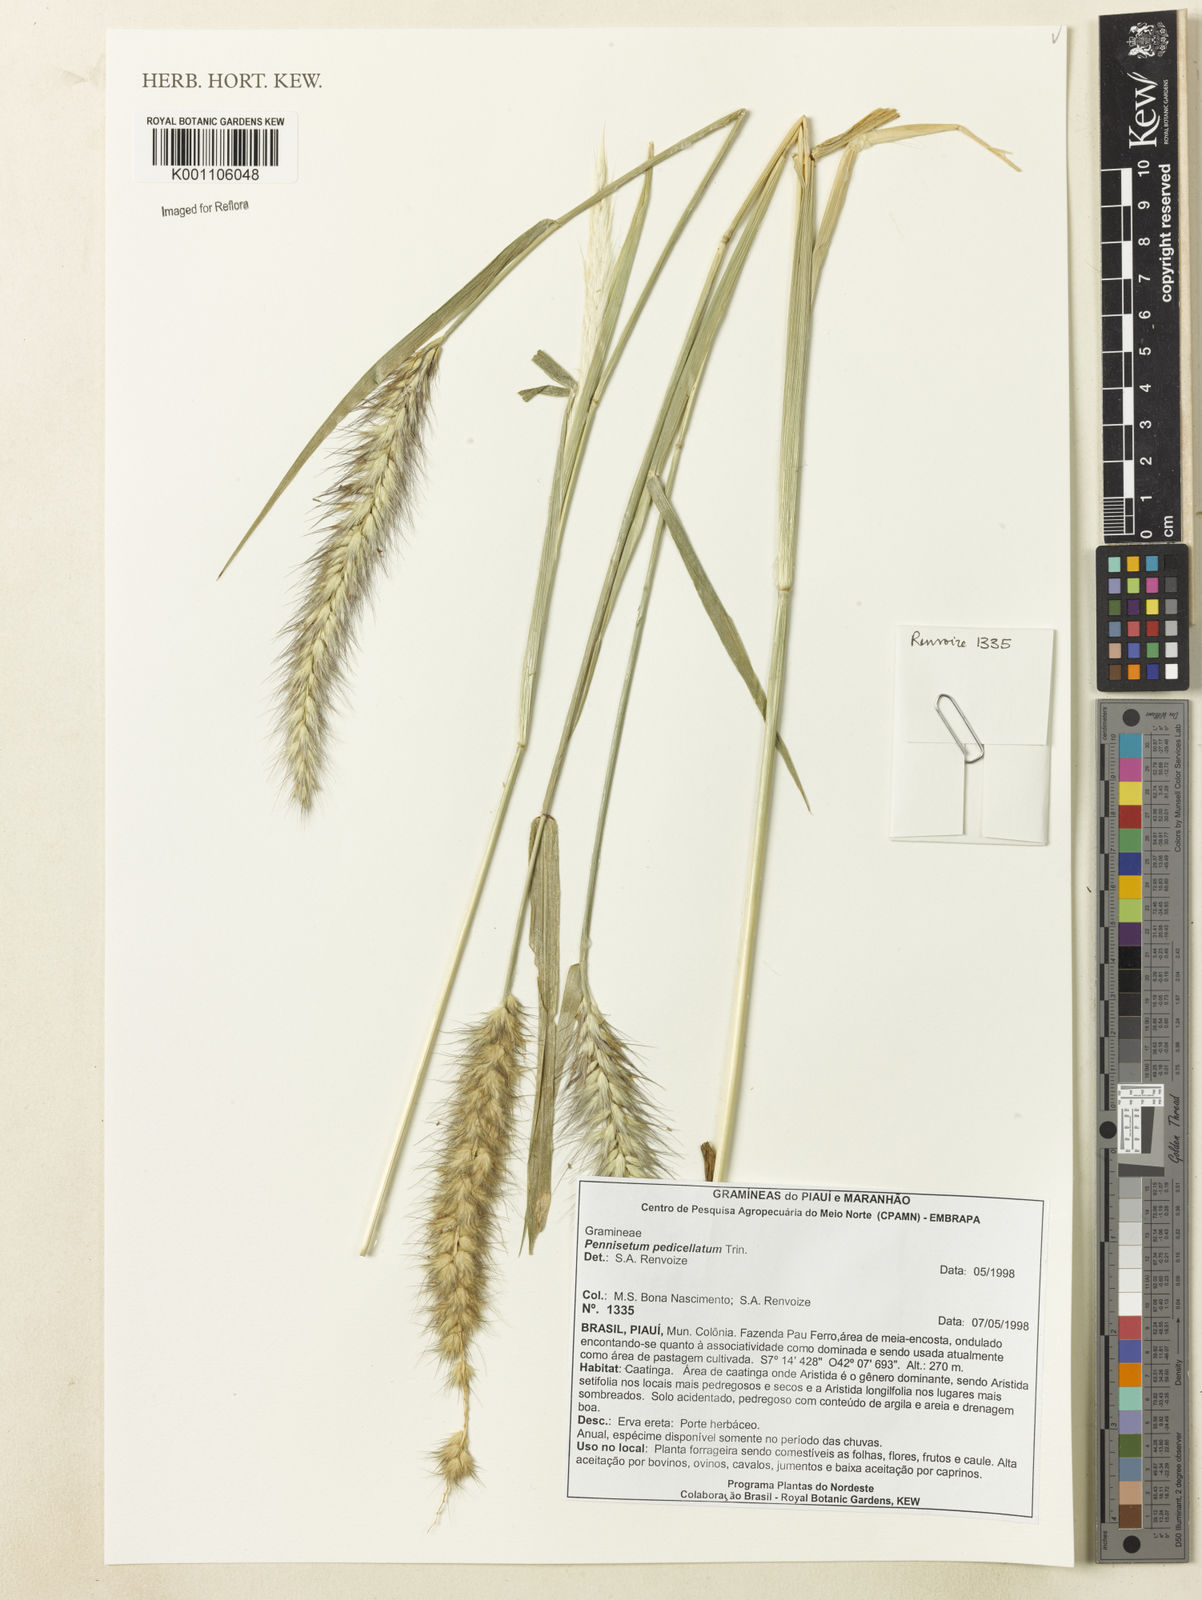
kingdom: Plantae
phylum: Tracheophyta
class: Liliopsida
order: Poales
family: Poaceae
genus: Cenchrus
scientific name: Cenchrus pedicellatus
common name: Hairy fountain grass
